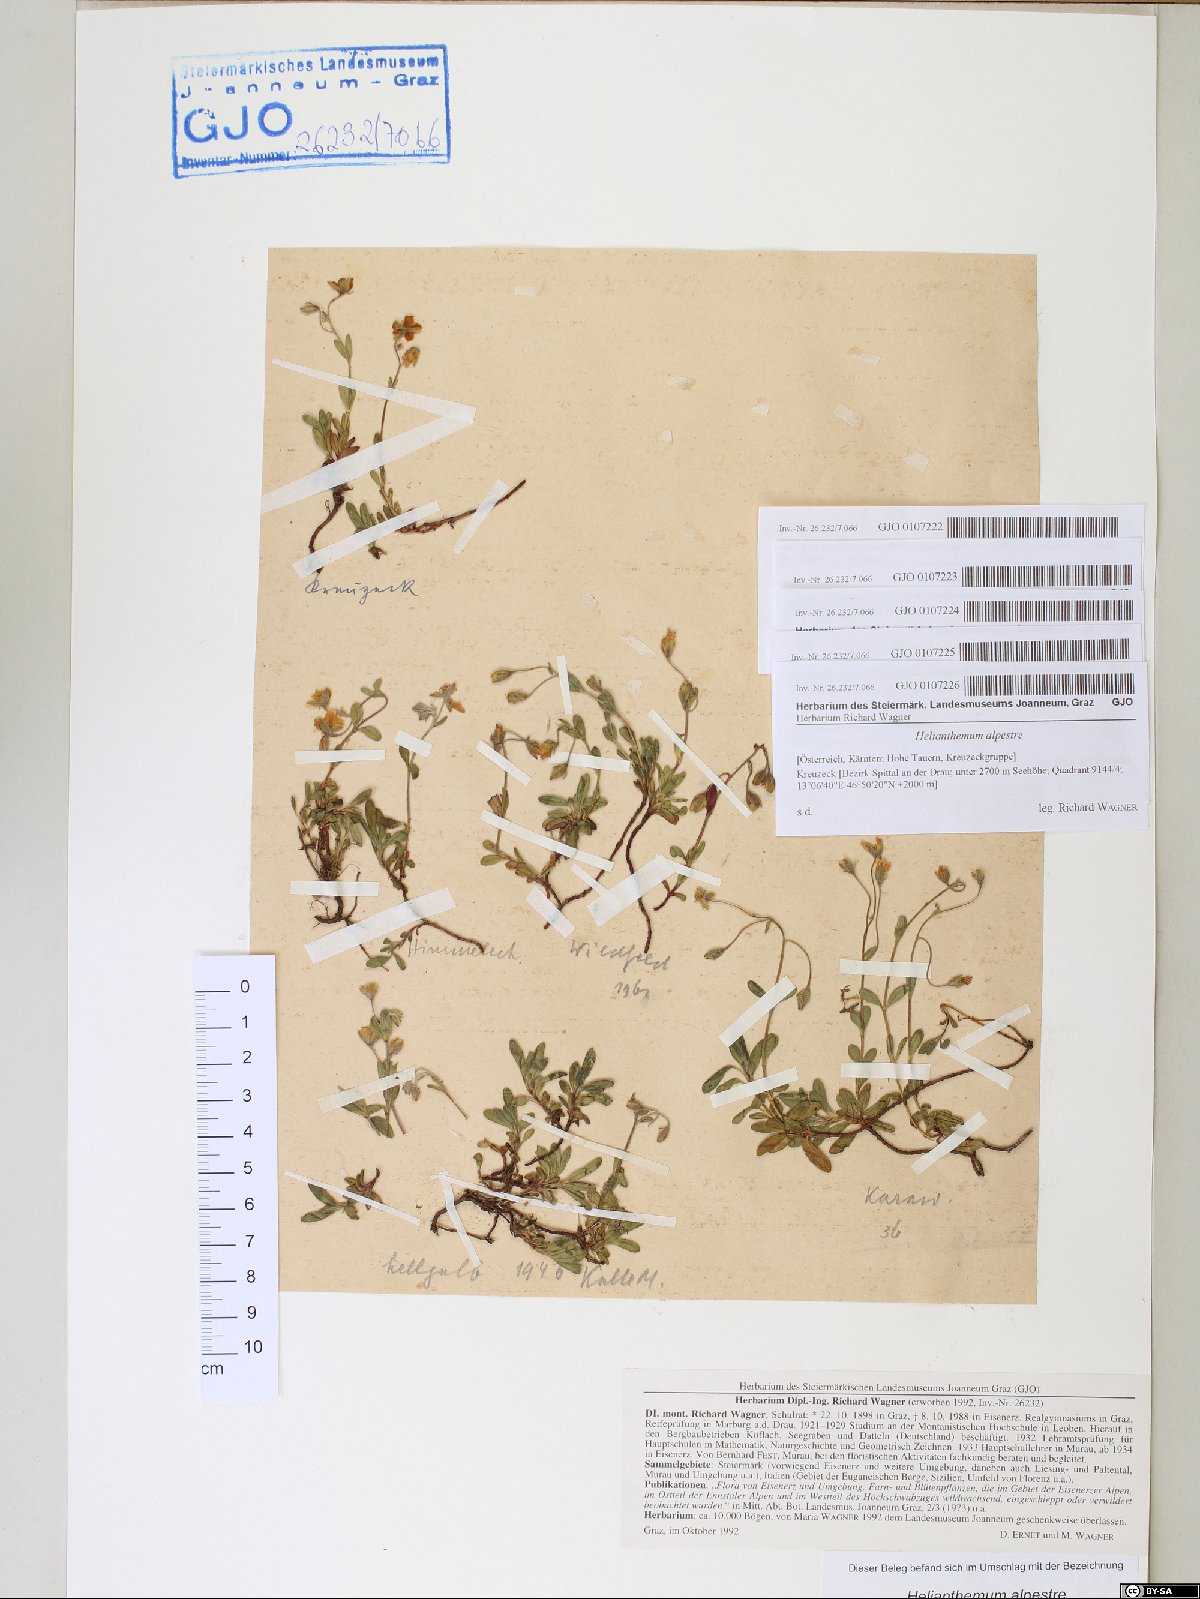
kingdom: Plantae
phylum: Tracheophyta
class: Magnoliopsida
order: Malvales
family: Cistaceae
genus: Helianthemum
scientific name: Helianthemum alpestre
